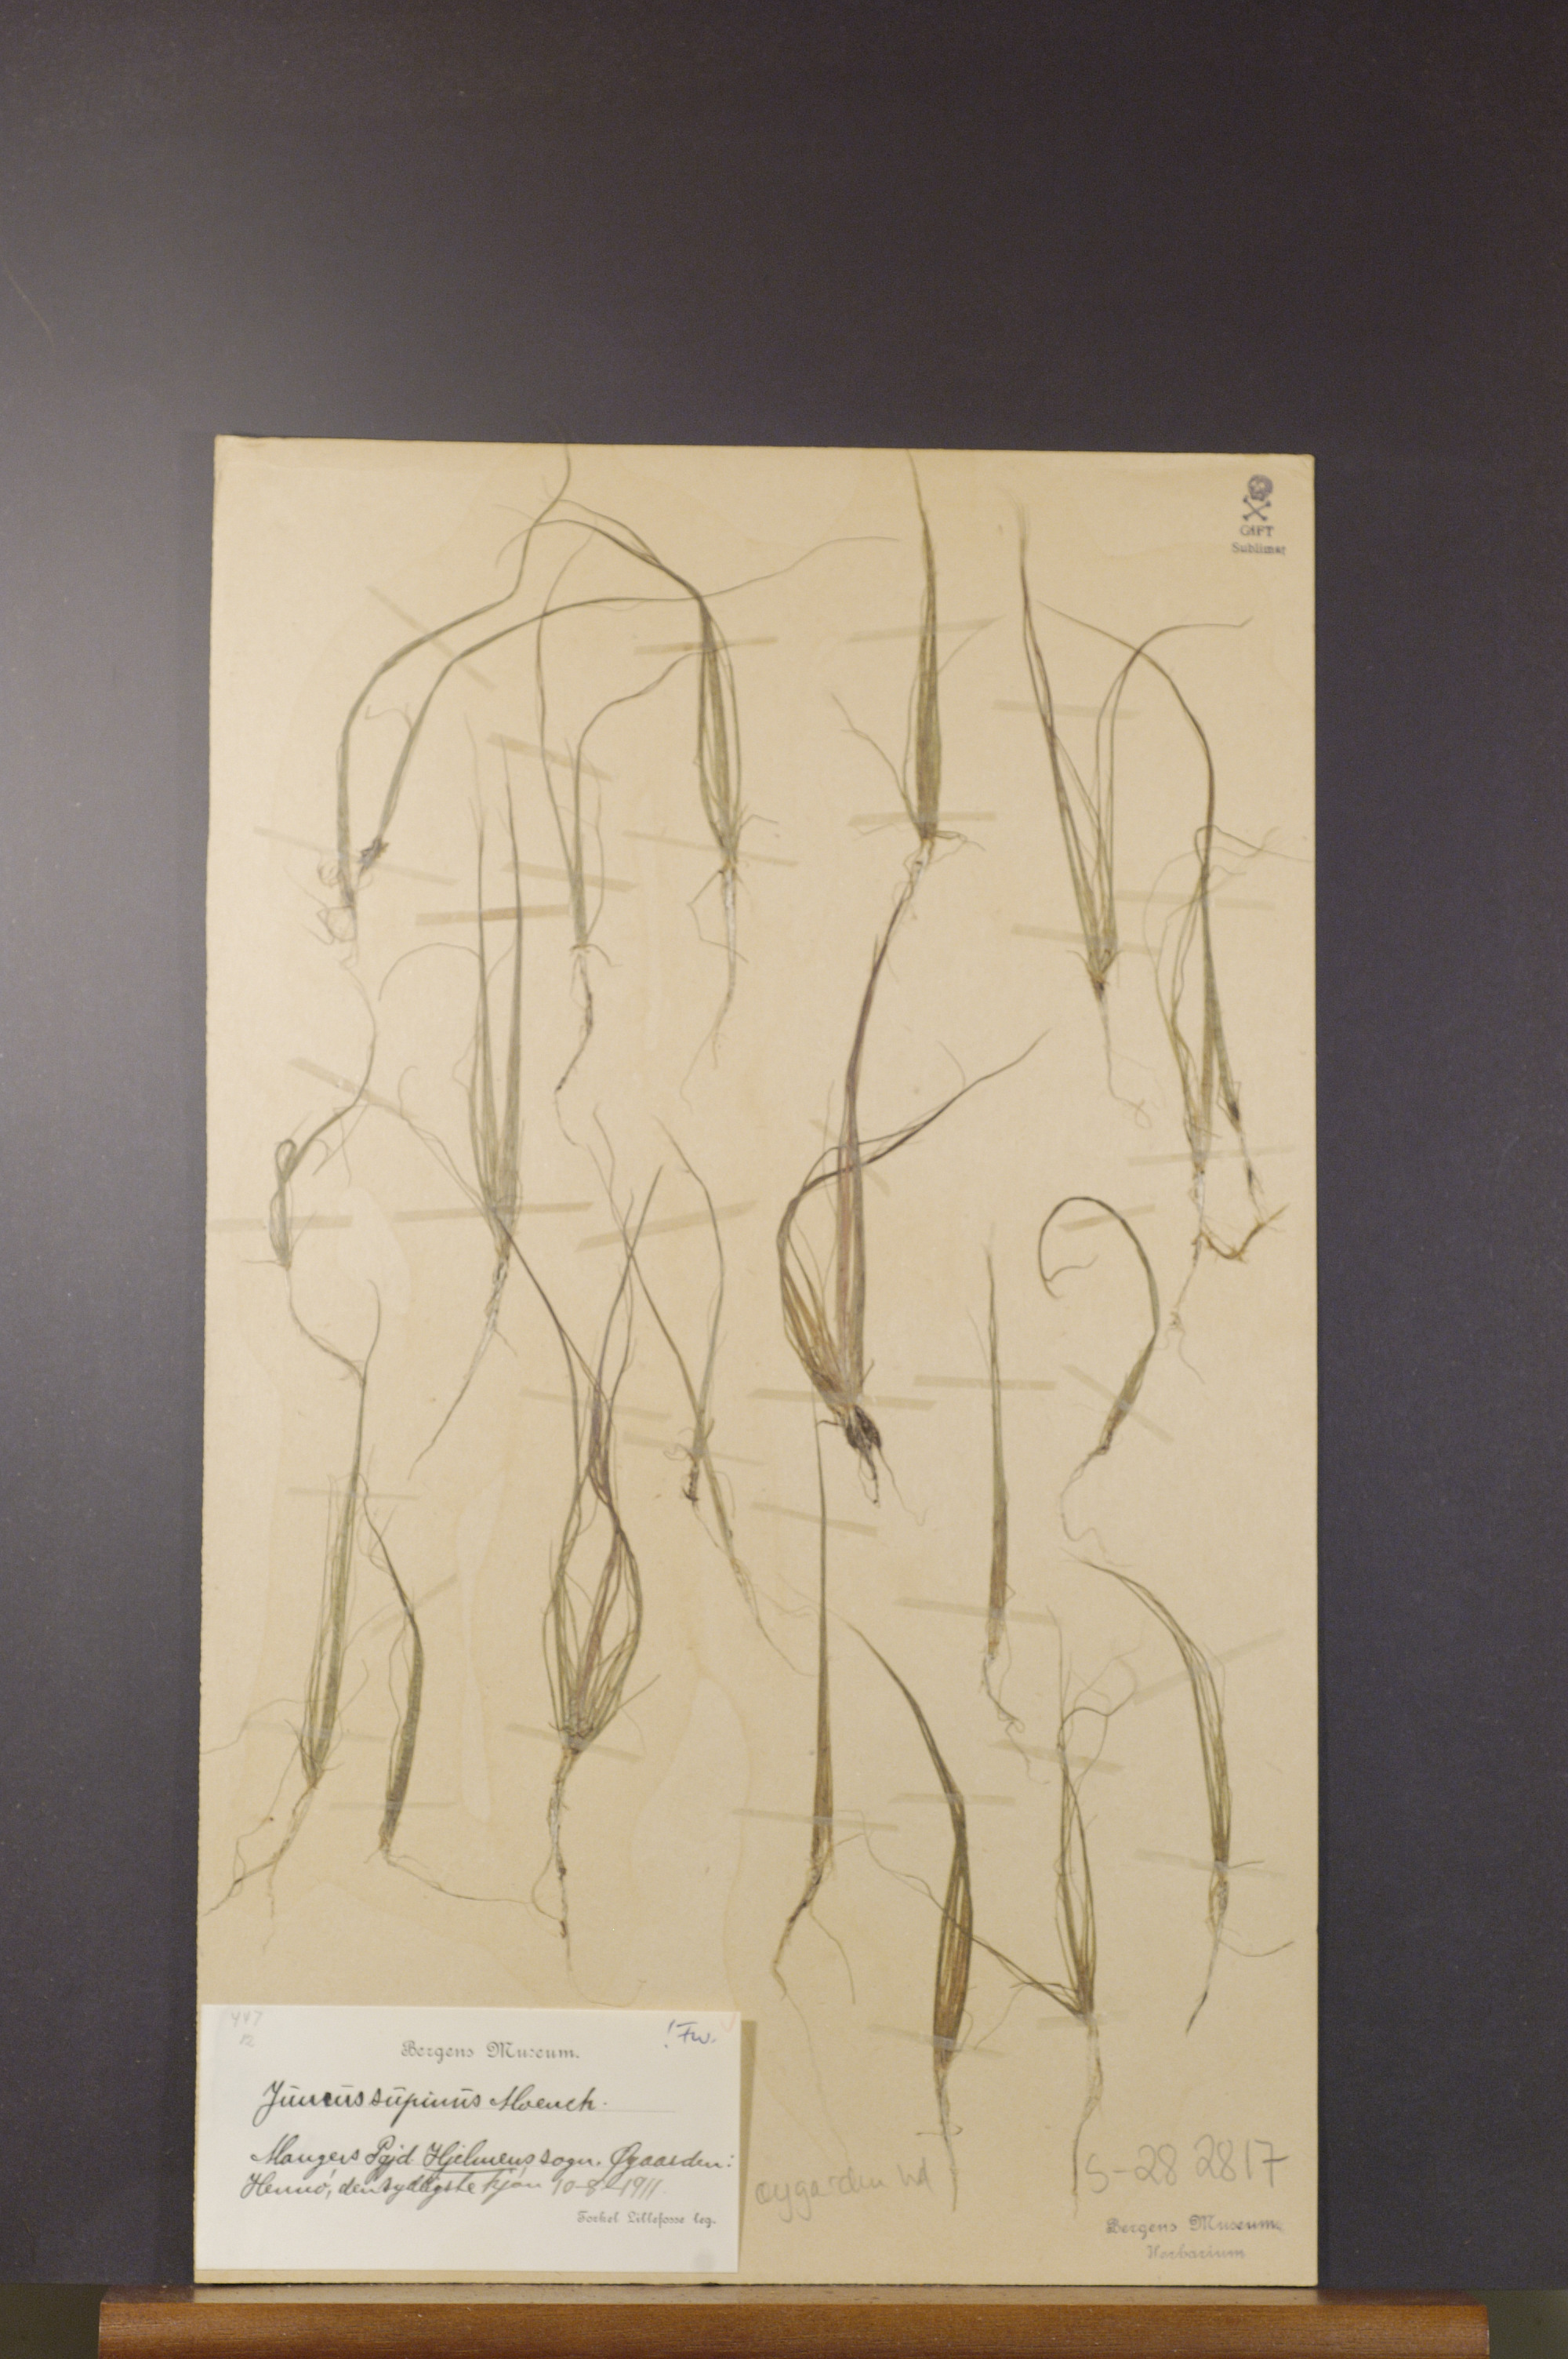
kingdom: Plantae
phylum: Tracheophyta
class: Liliopsida
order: Poales
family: Juncaceae
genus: Juncus
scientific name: Juncus bulbosus
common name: Bulbous rush
